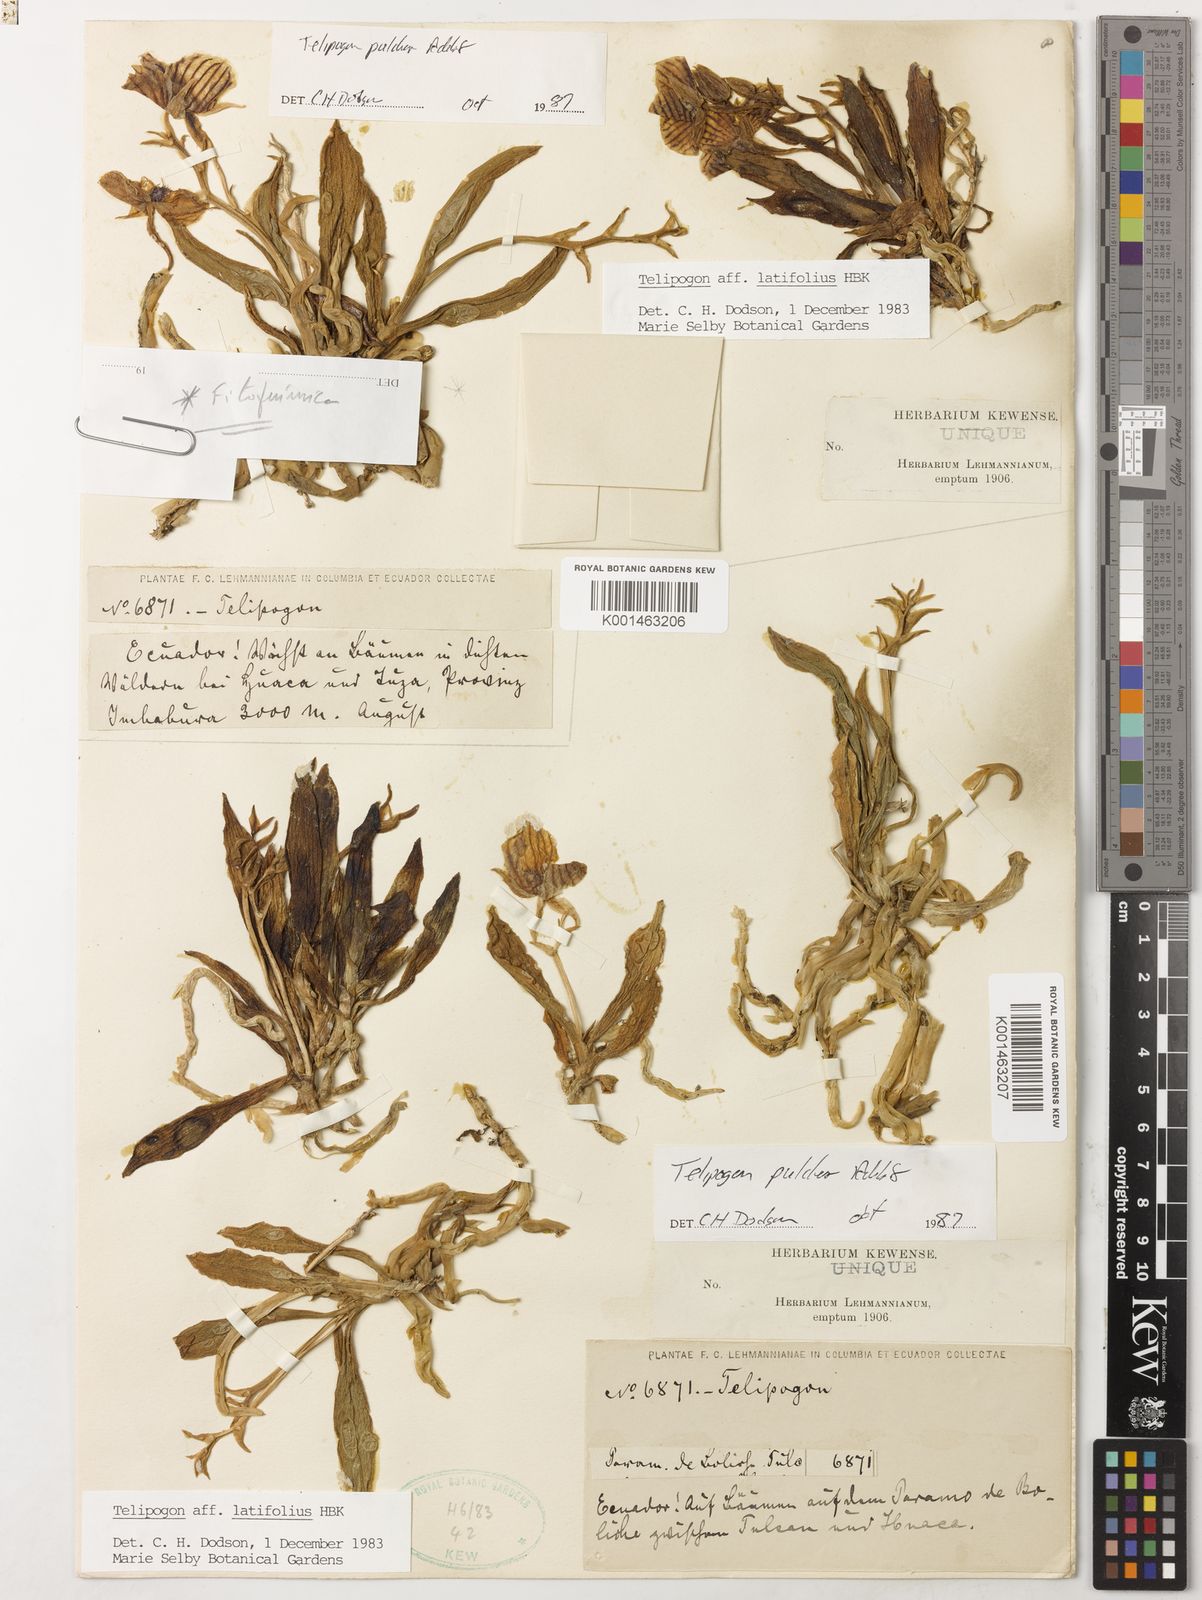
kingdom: Plantae
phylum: Tracheophyta
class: Liliopsida
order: Asparagales
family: Orchidaceae
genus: Telipogon
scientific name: Telipogon pulcher
